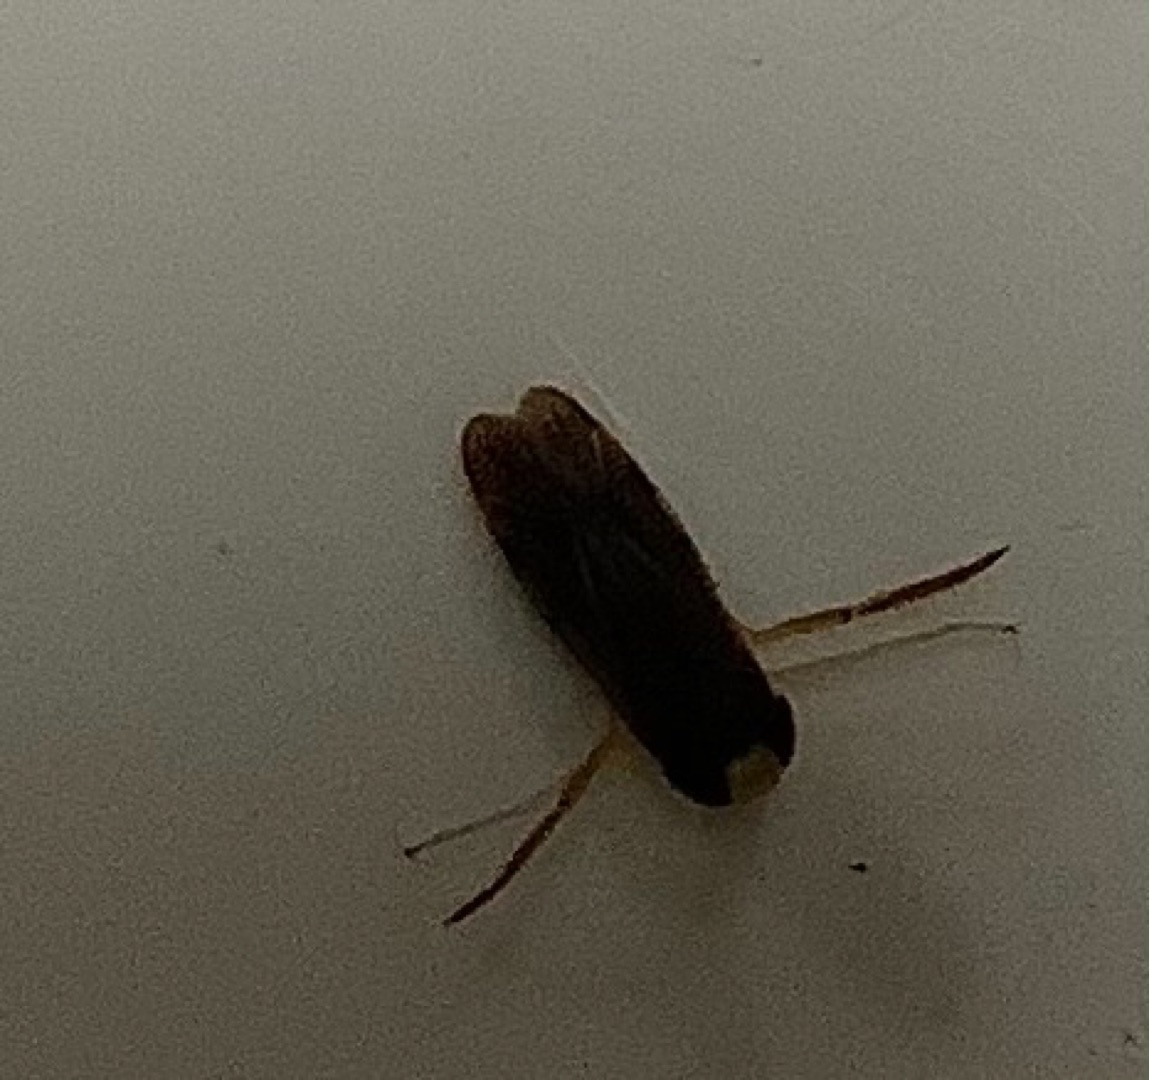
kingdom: Animalia
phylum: Arthropoda
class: Insecta
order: Hemiptera
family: Corixidae
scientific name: Corixidae
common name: Bugsvømmere
